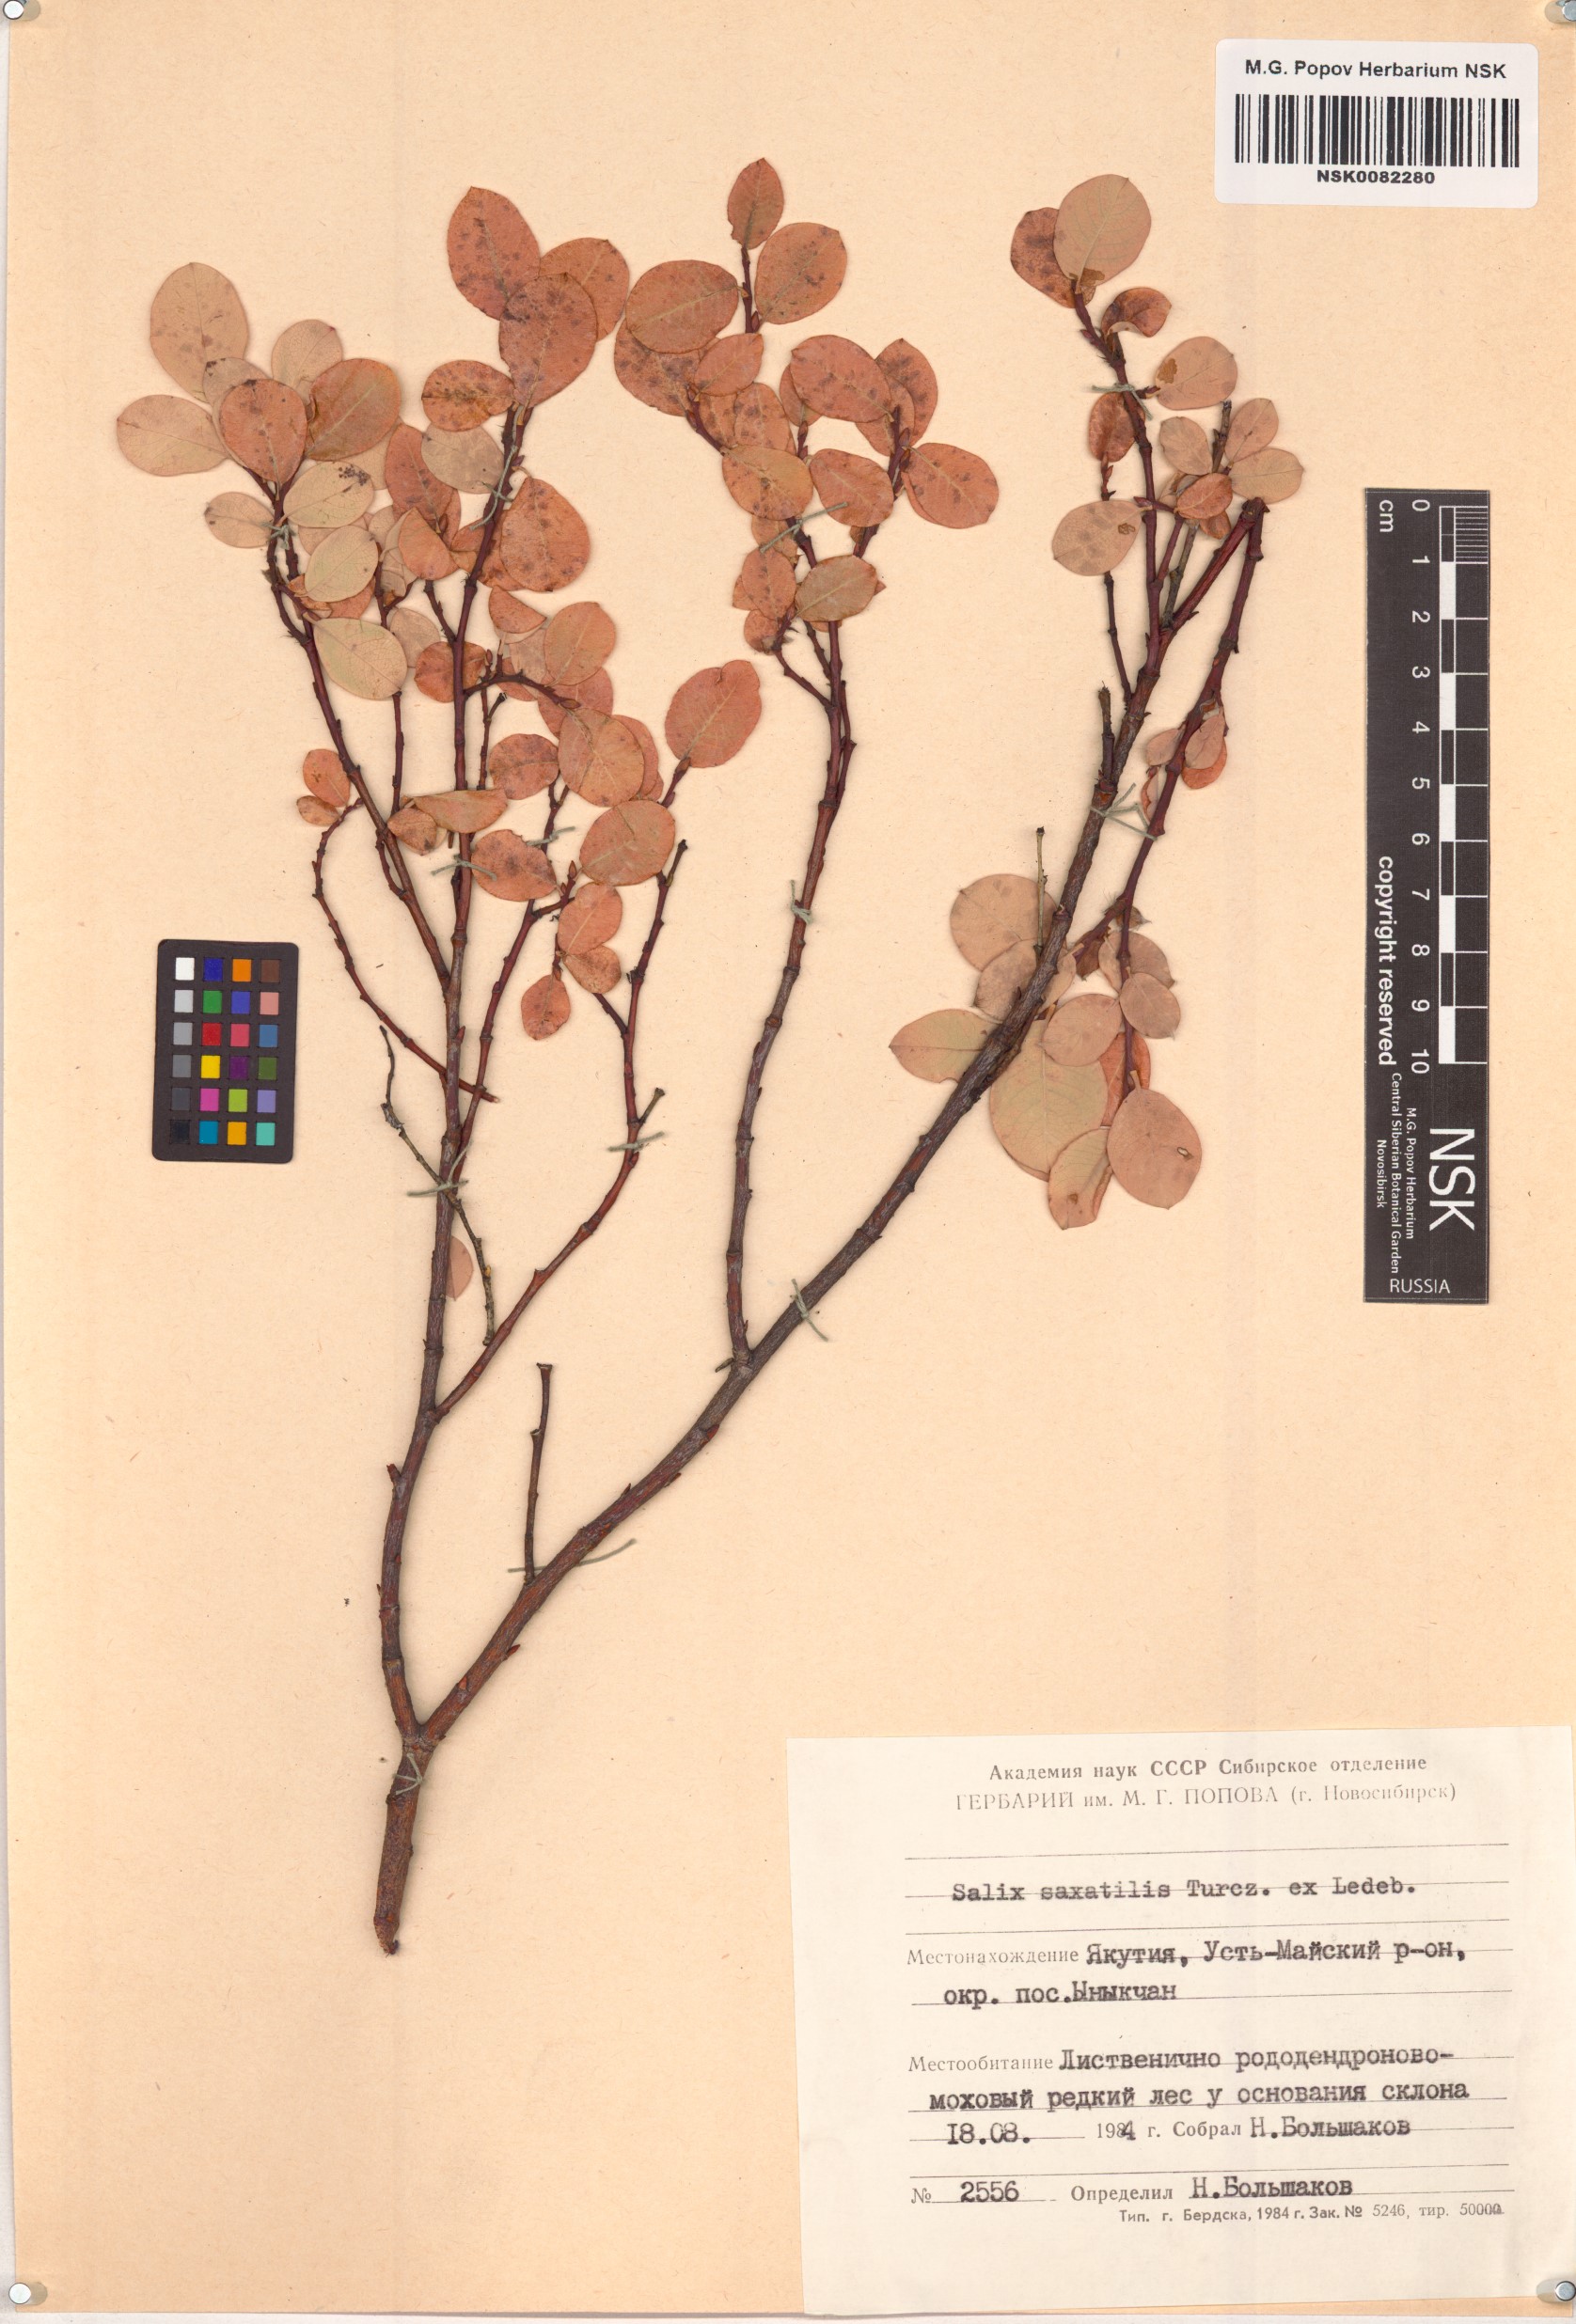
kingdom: Plantae
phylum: Tracheophyta
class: Magnoliopsida
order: Malpighiales
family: Salicaceae
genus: Salix
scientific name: Salix saxatilis
